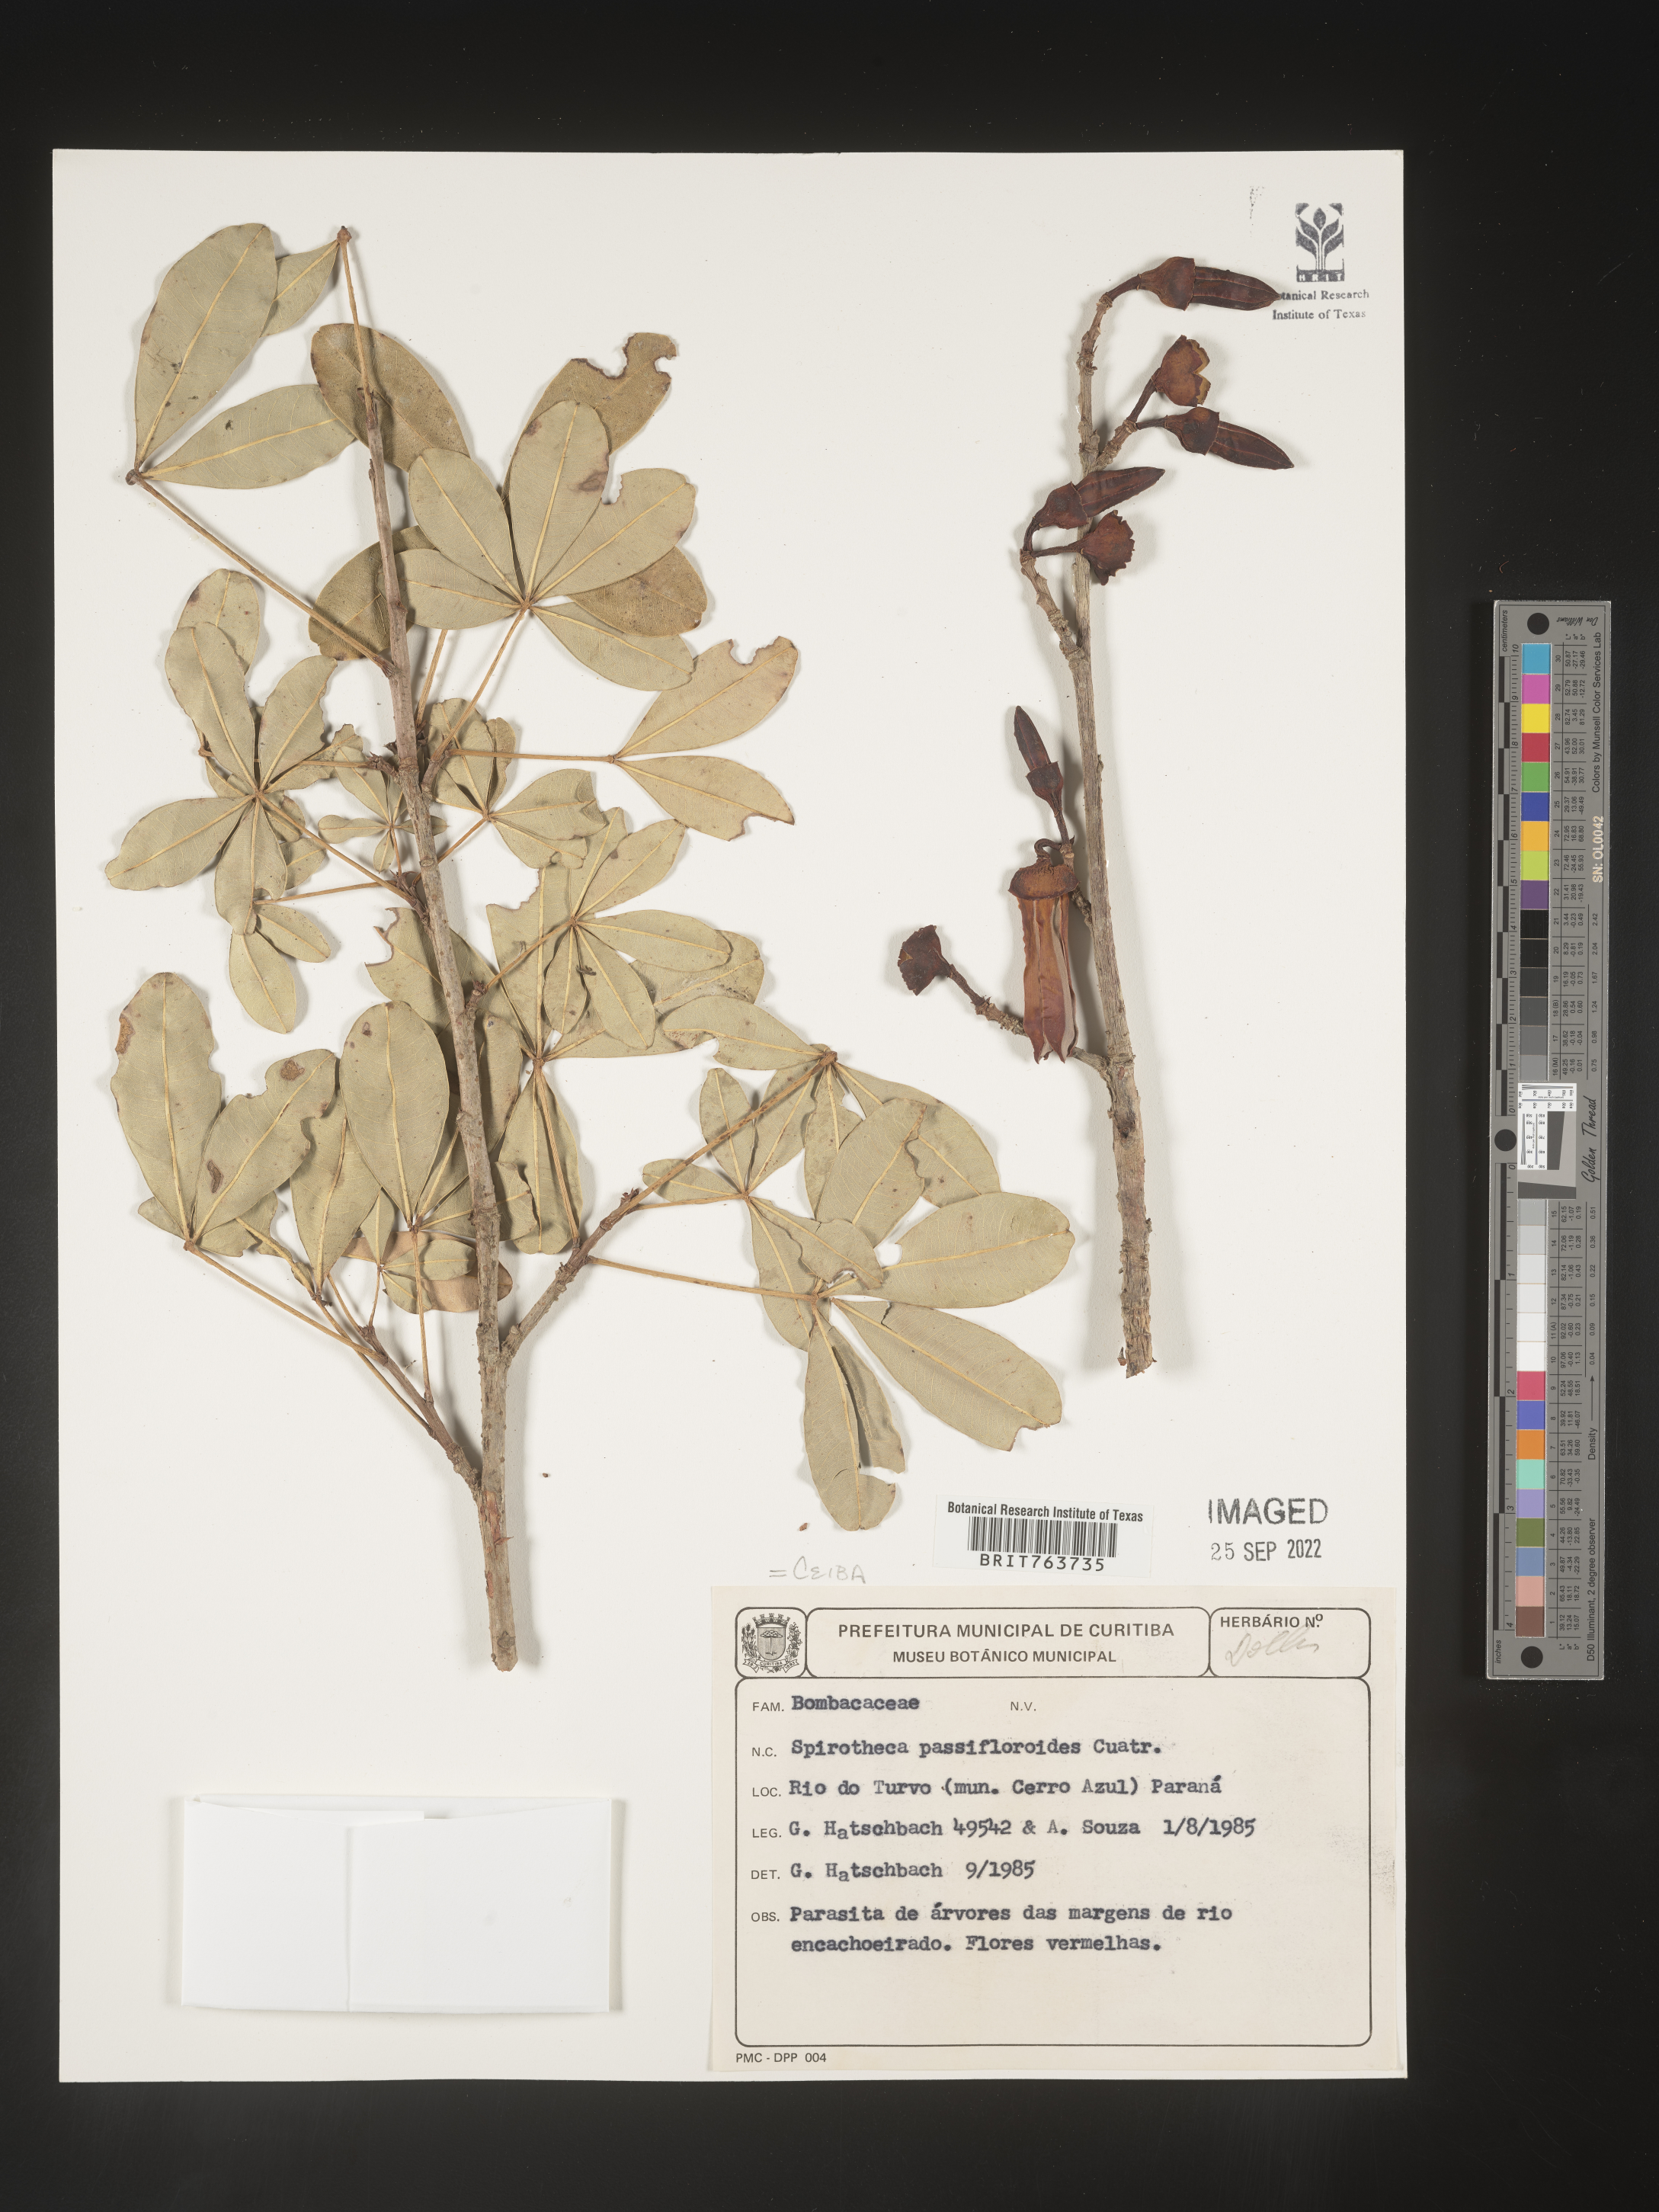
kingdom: Plantae
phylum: Tracheophyta
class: Magnoliopsida
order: Malvales
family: Malvaceae
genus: Ceiba
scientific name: Ceiba
